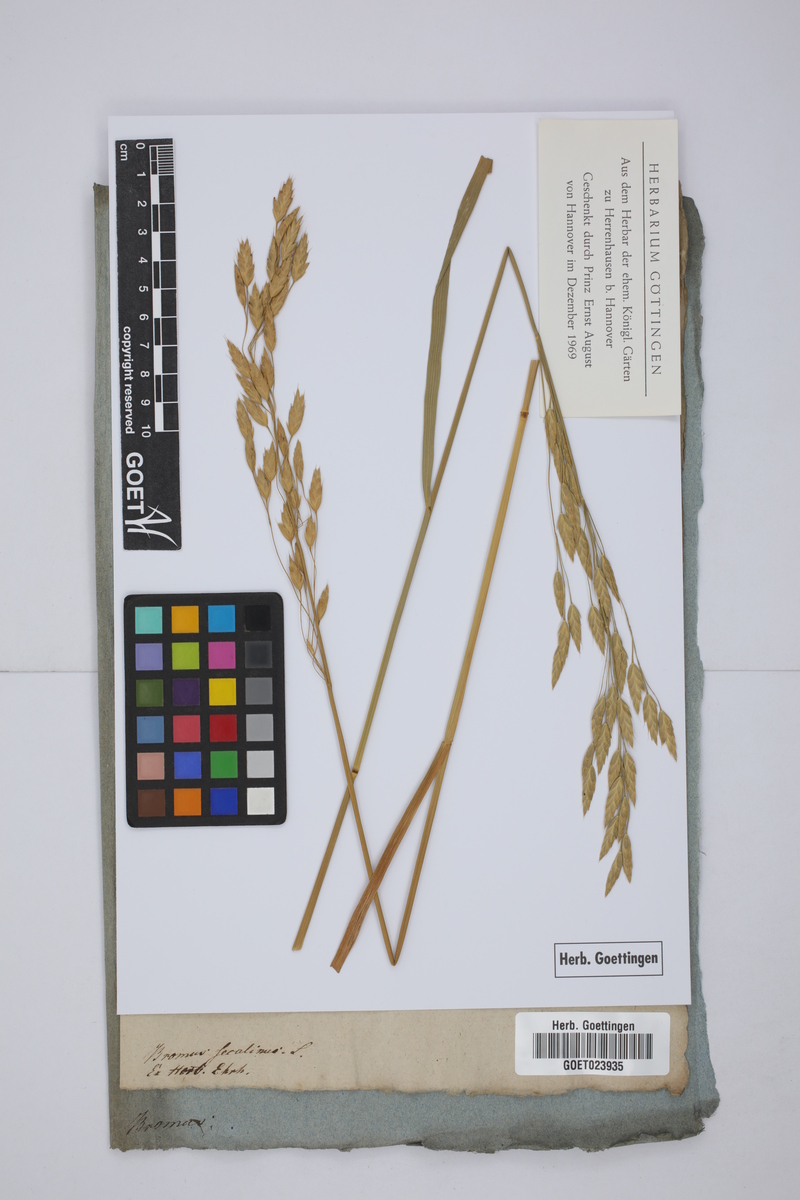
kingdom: Plantae
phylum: Tracheophyta
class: Liliopsida
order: Poales
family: Poaceae
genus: Bromus
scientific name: Bromus secalinus
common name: Rye brome
